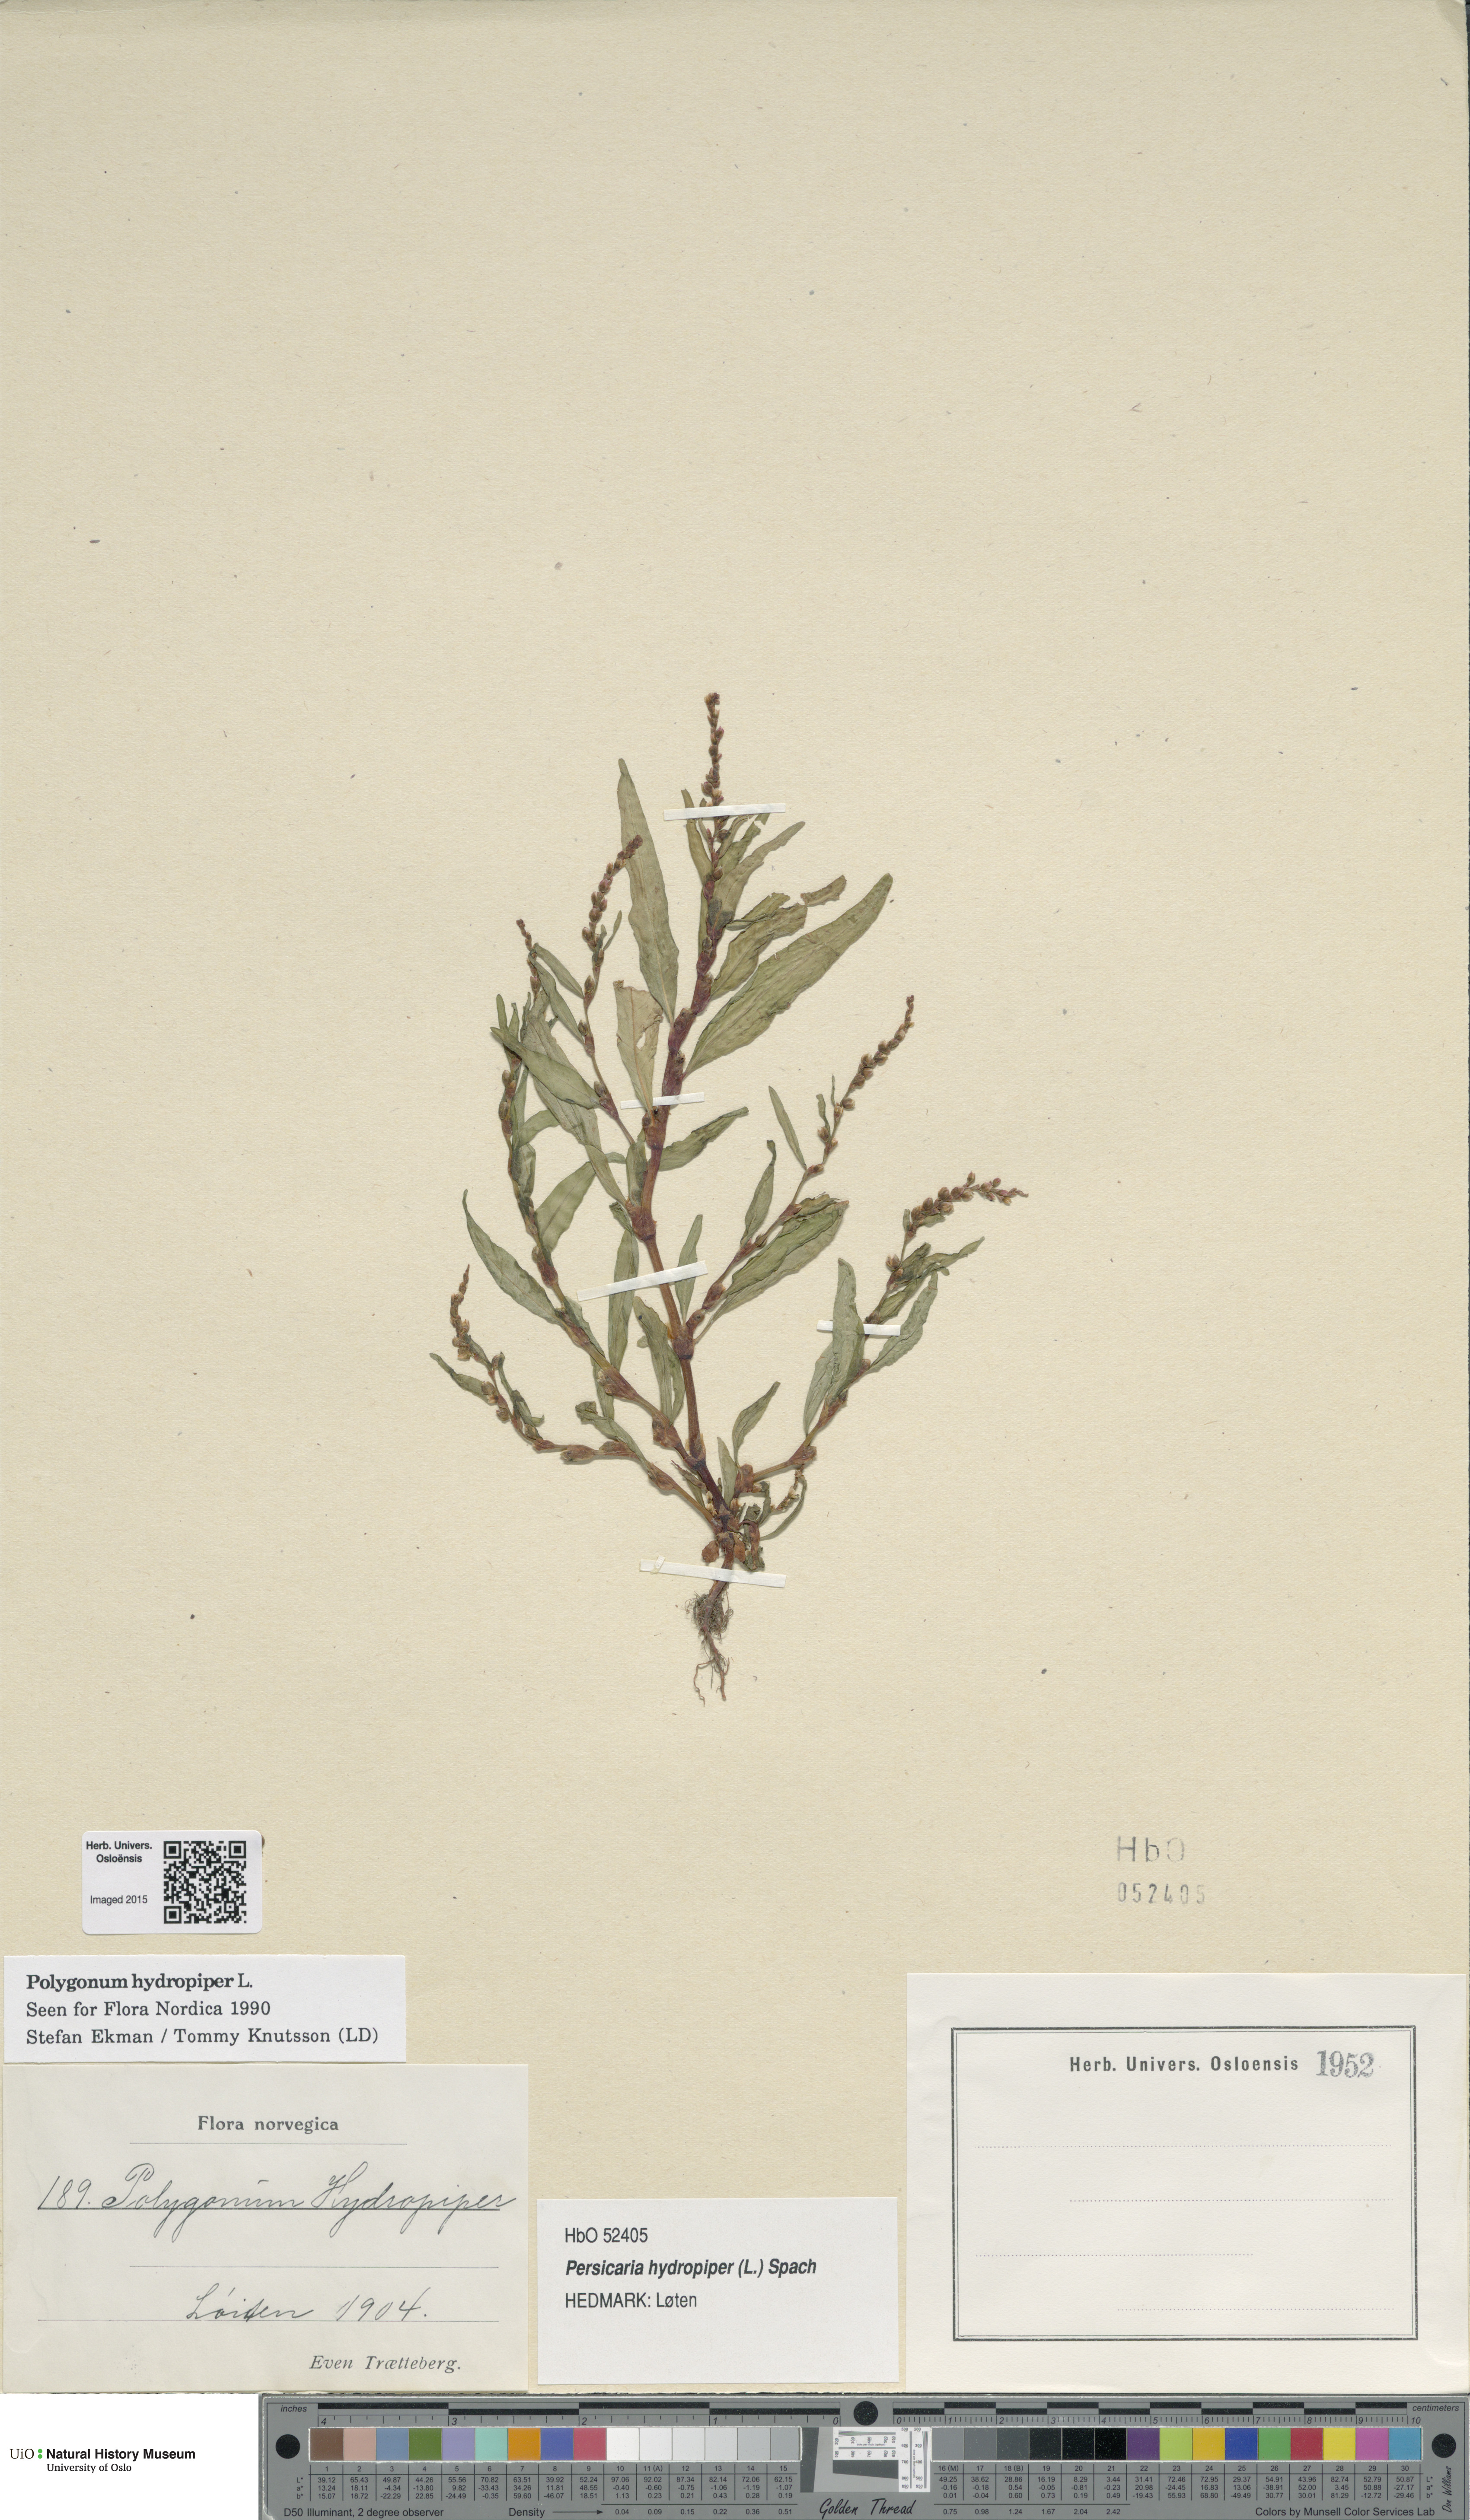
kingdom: Plantae
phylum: Tracheophyta
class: Magnoliopsida
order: Caryophyllales
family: Polygonaceae
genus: Persicaria
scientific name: Persicaria hydropiper
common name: Water-pepper
